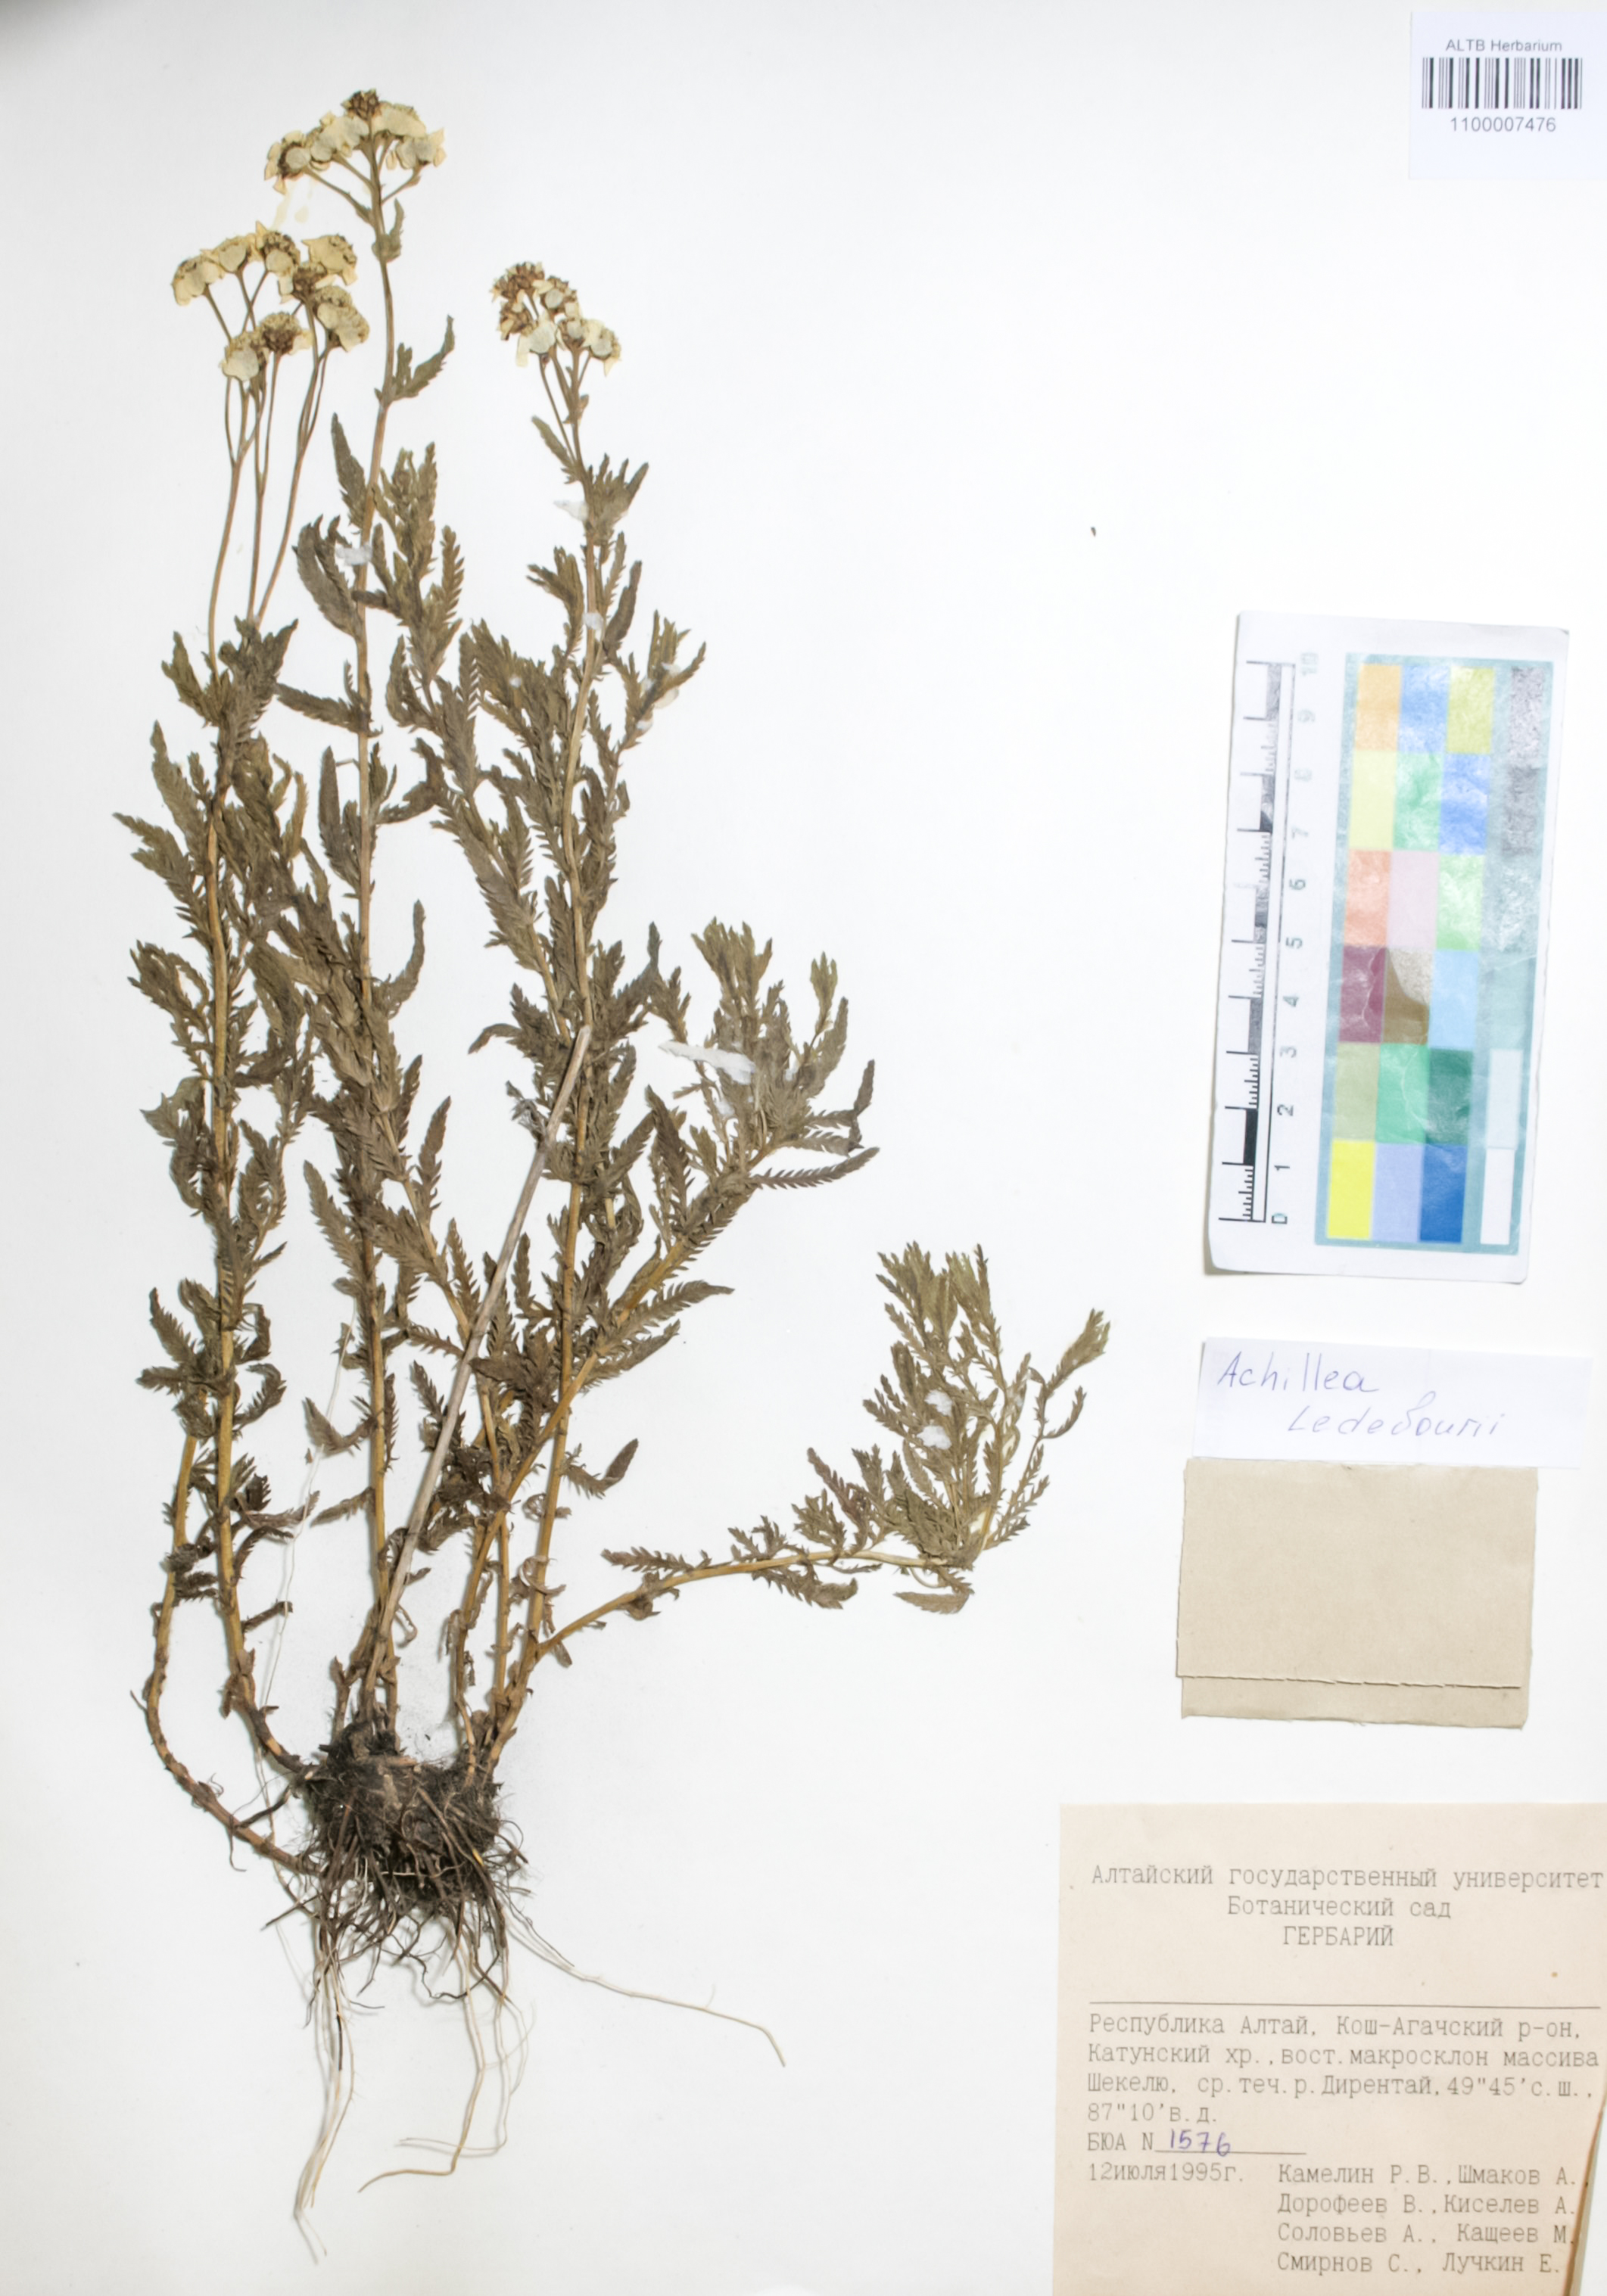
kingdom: Plantae
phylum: Tracheophyta
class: Magnoliopsida
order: Asterales
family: Asteraceae
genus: Achillea
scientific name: Achillea ledebourii
